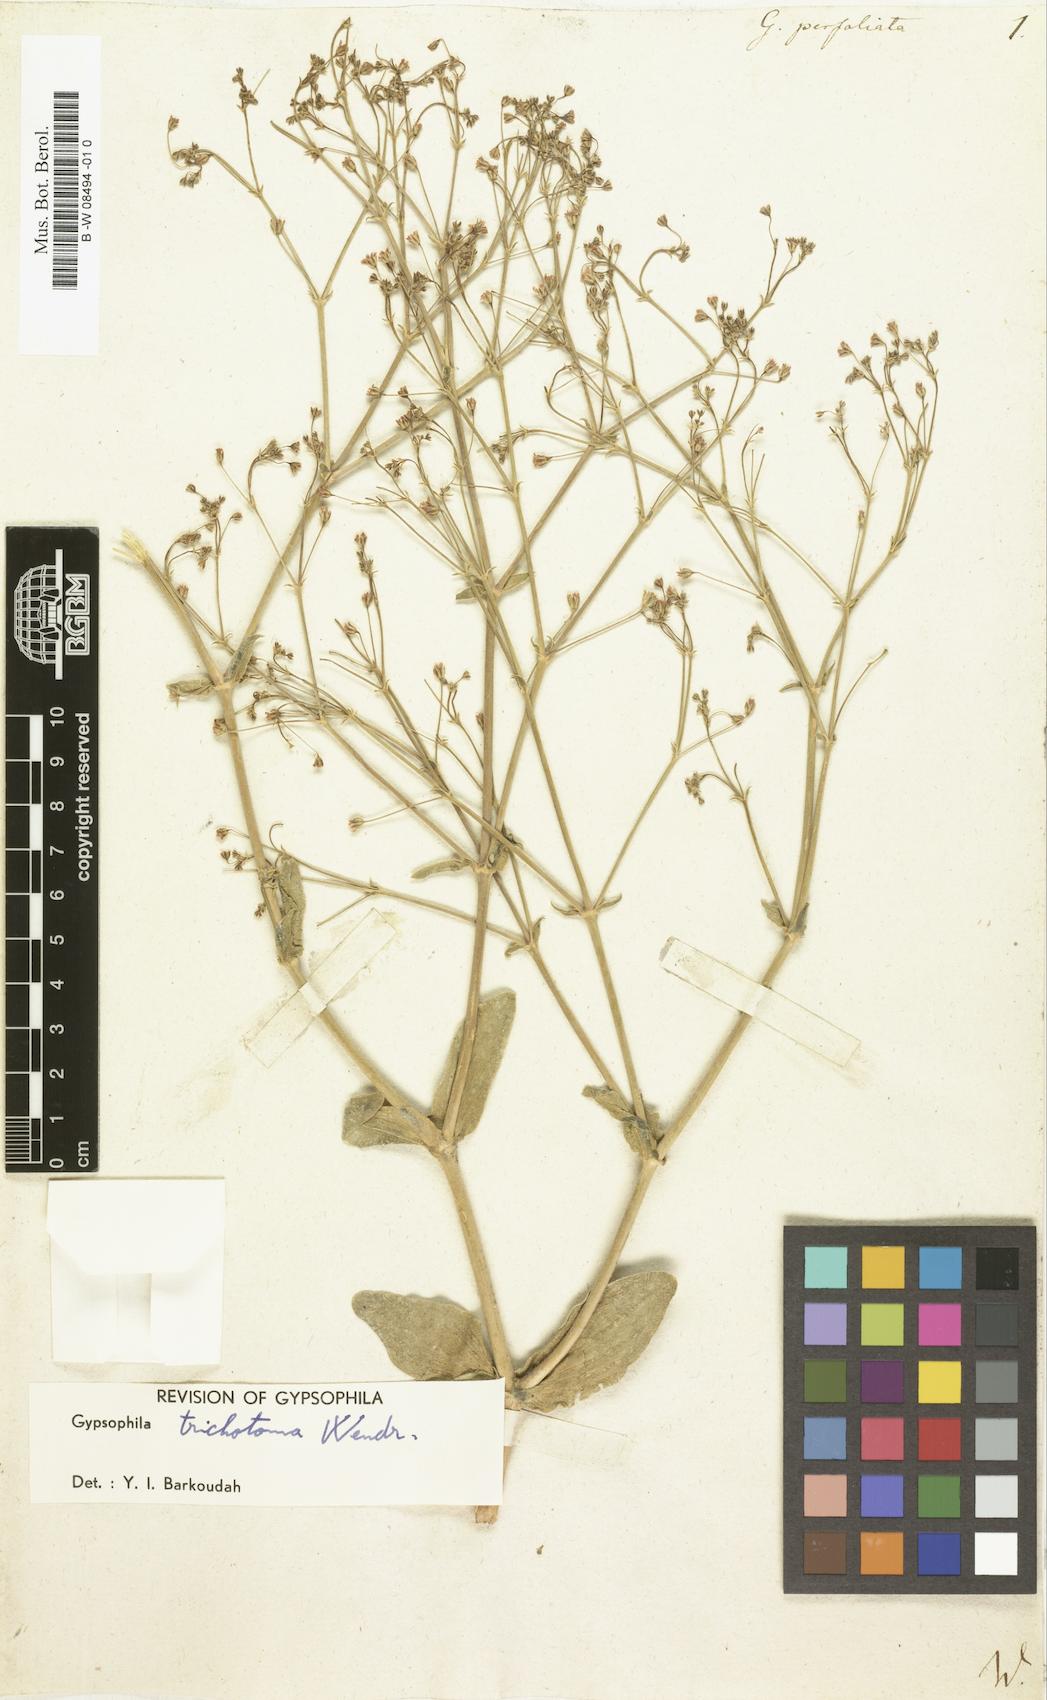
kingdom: Plantae
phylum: Tracheophyta
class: Magnoliopsida
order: Caryophyllales
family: Caryophyllaceae
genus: Gypsophila
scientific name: Gypsophila perfoliata
